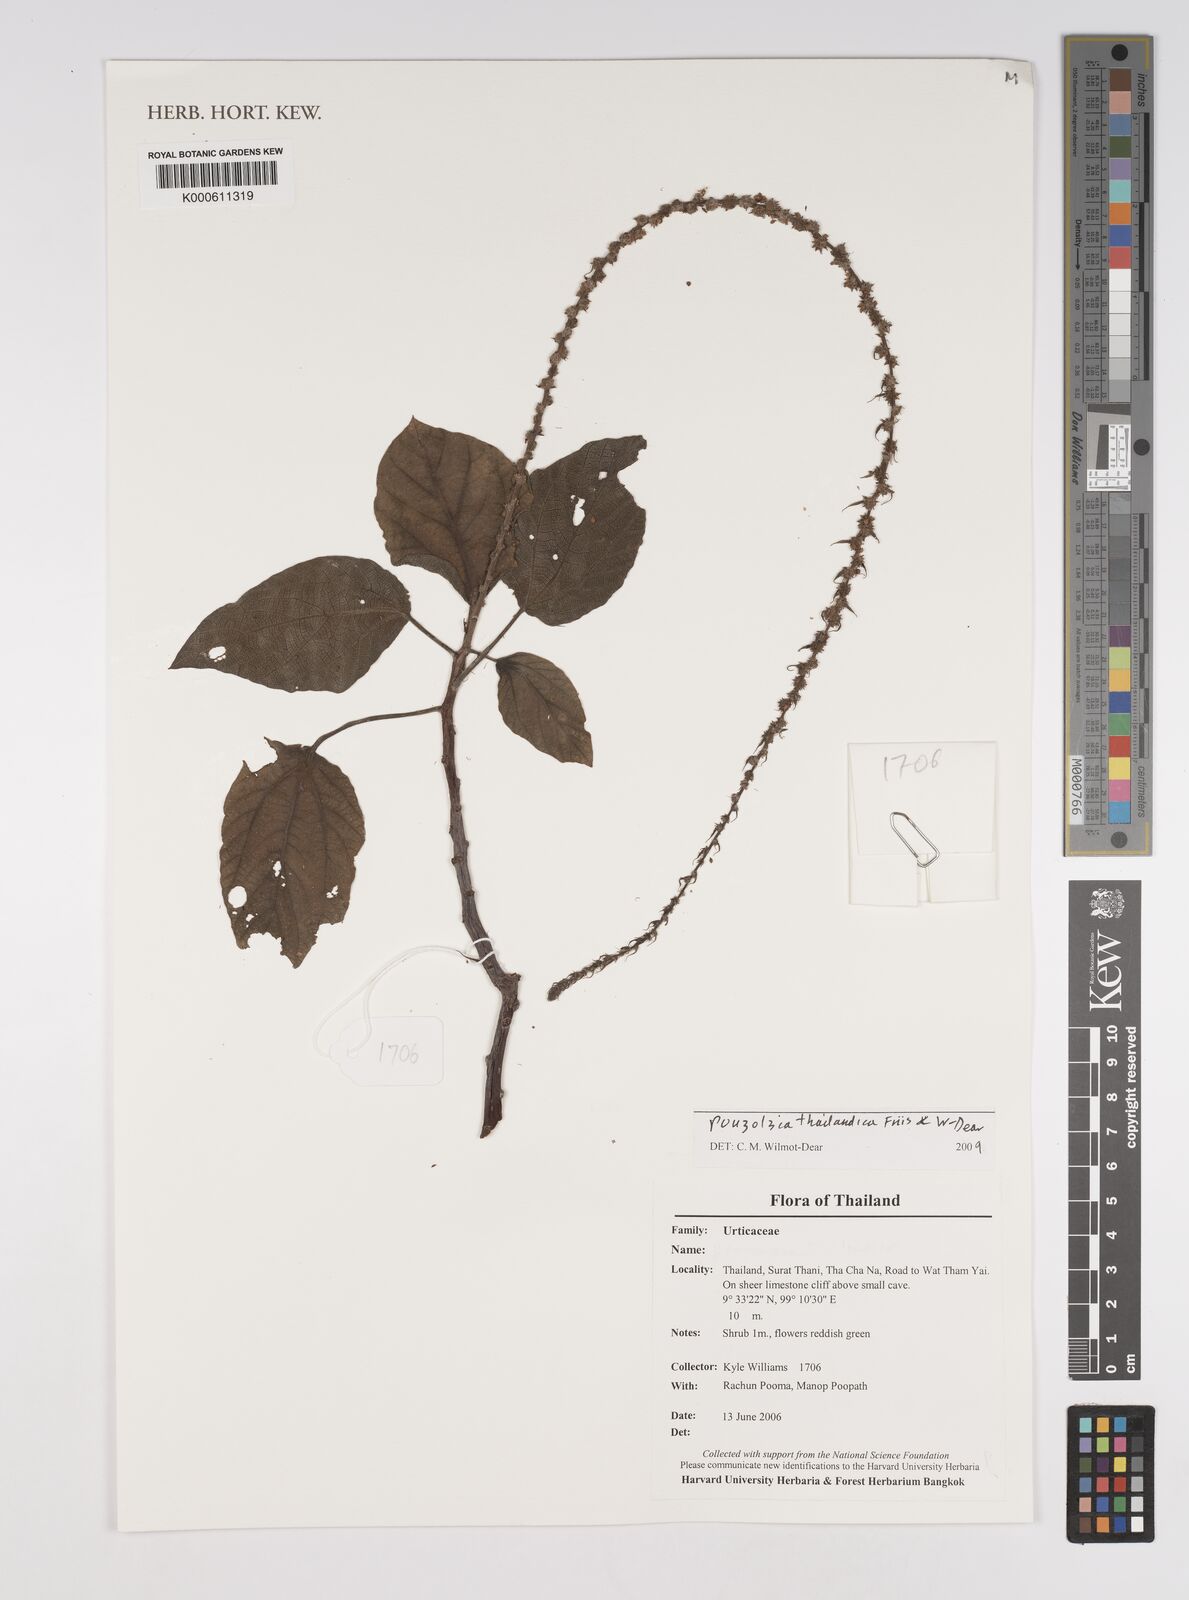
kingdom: Plantae
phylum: Tracheophyta
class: Magnoliopsida
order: Rosales
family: Urticaceae
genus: Pouzolzia
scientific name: Pouzolzia
